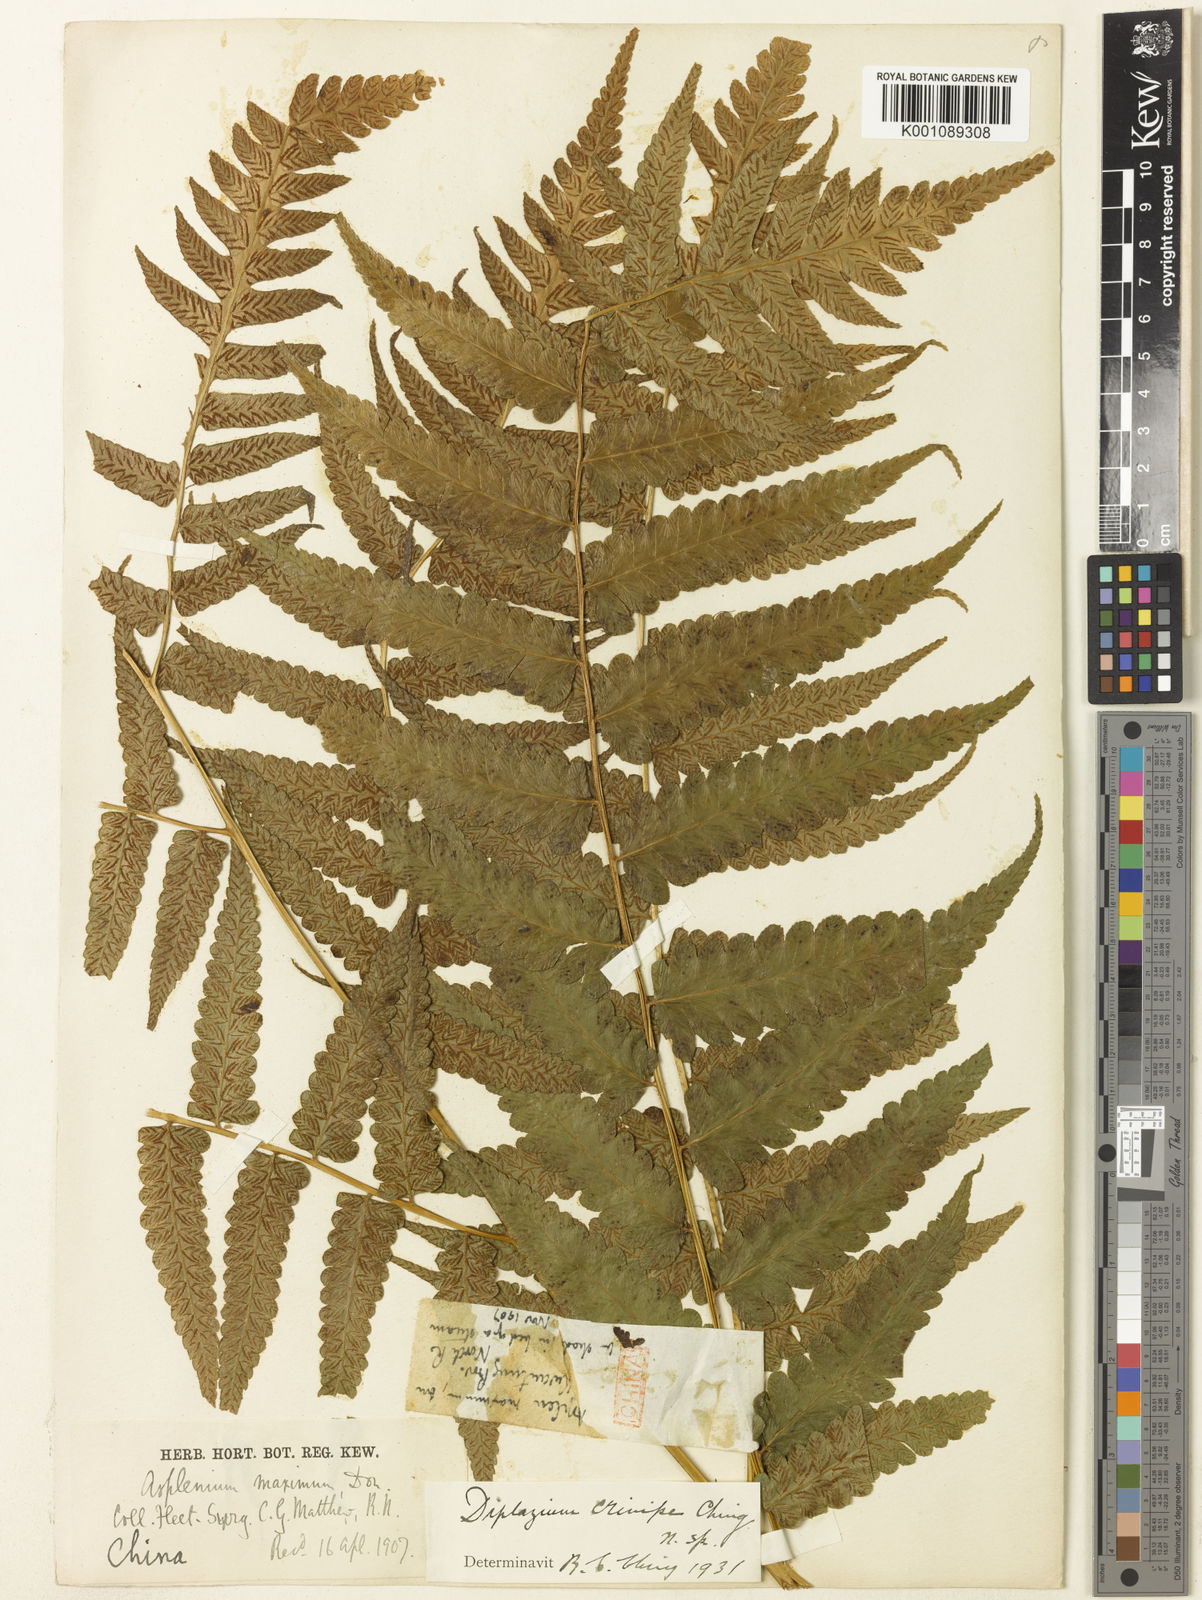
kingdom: Plantae
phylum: Tracheophyta
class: Polypodiopsida
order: Polypodiales
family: Athyriaceae
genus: Diplazium
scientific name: Diplazium dilatatum
